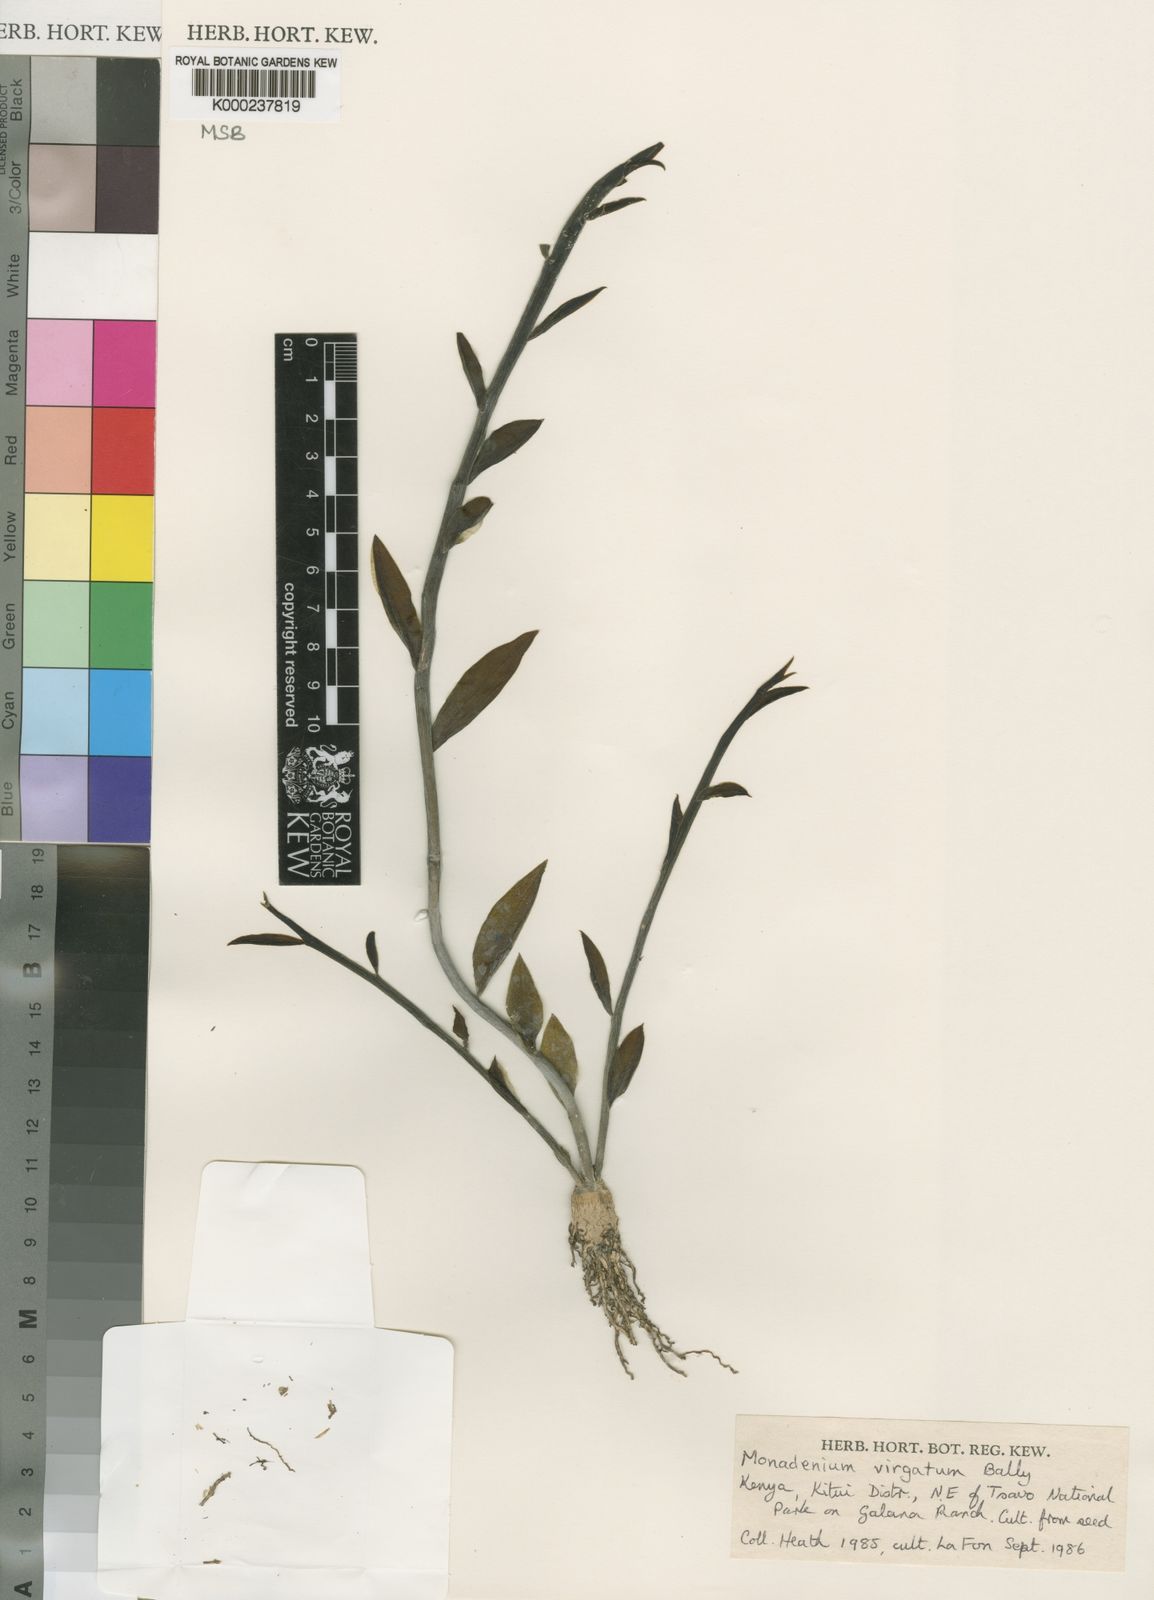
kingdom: Plantae
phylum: Tracheophyta
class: Magnoliopsida
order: Malpighiales
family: Euphorbiaceae
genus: Euphorbia
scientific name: Euphorbia neovirgata
